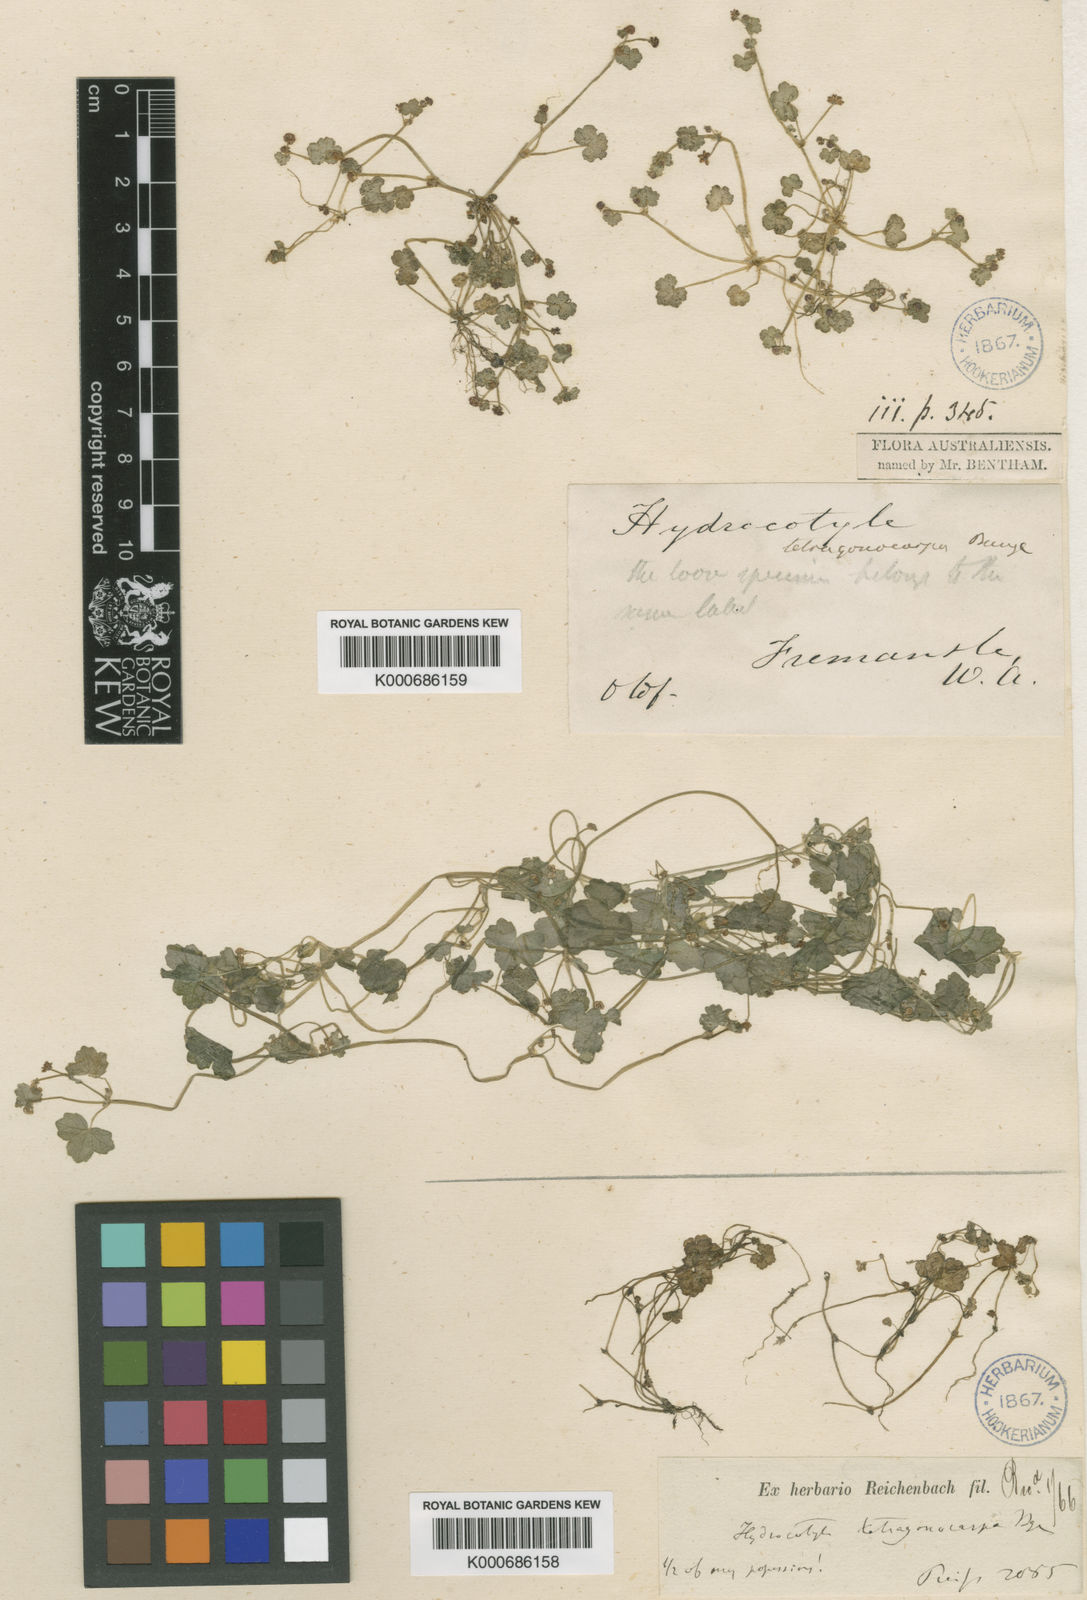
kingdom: Plantae
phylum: Tracheophyta
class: Magnoliopsida
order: Apiales
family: Araliaceae
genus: Hydrocotyle
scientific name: Hydrocotyle tetragonocarpa
